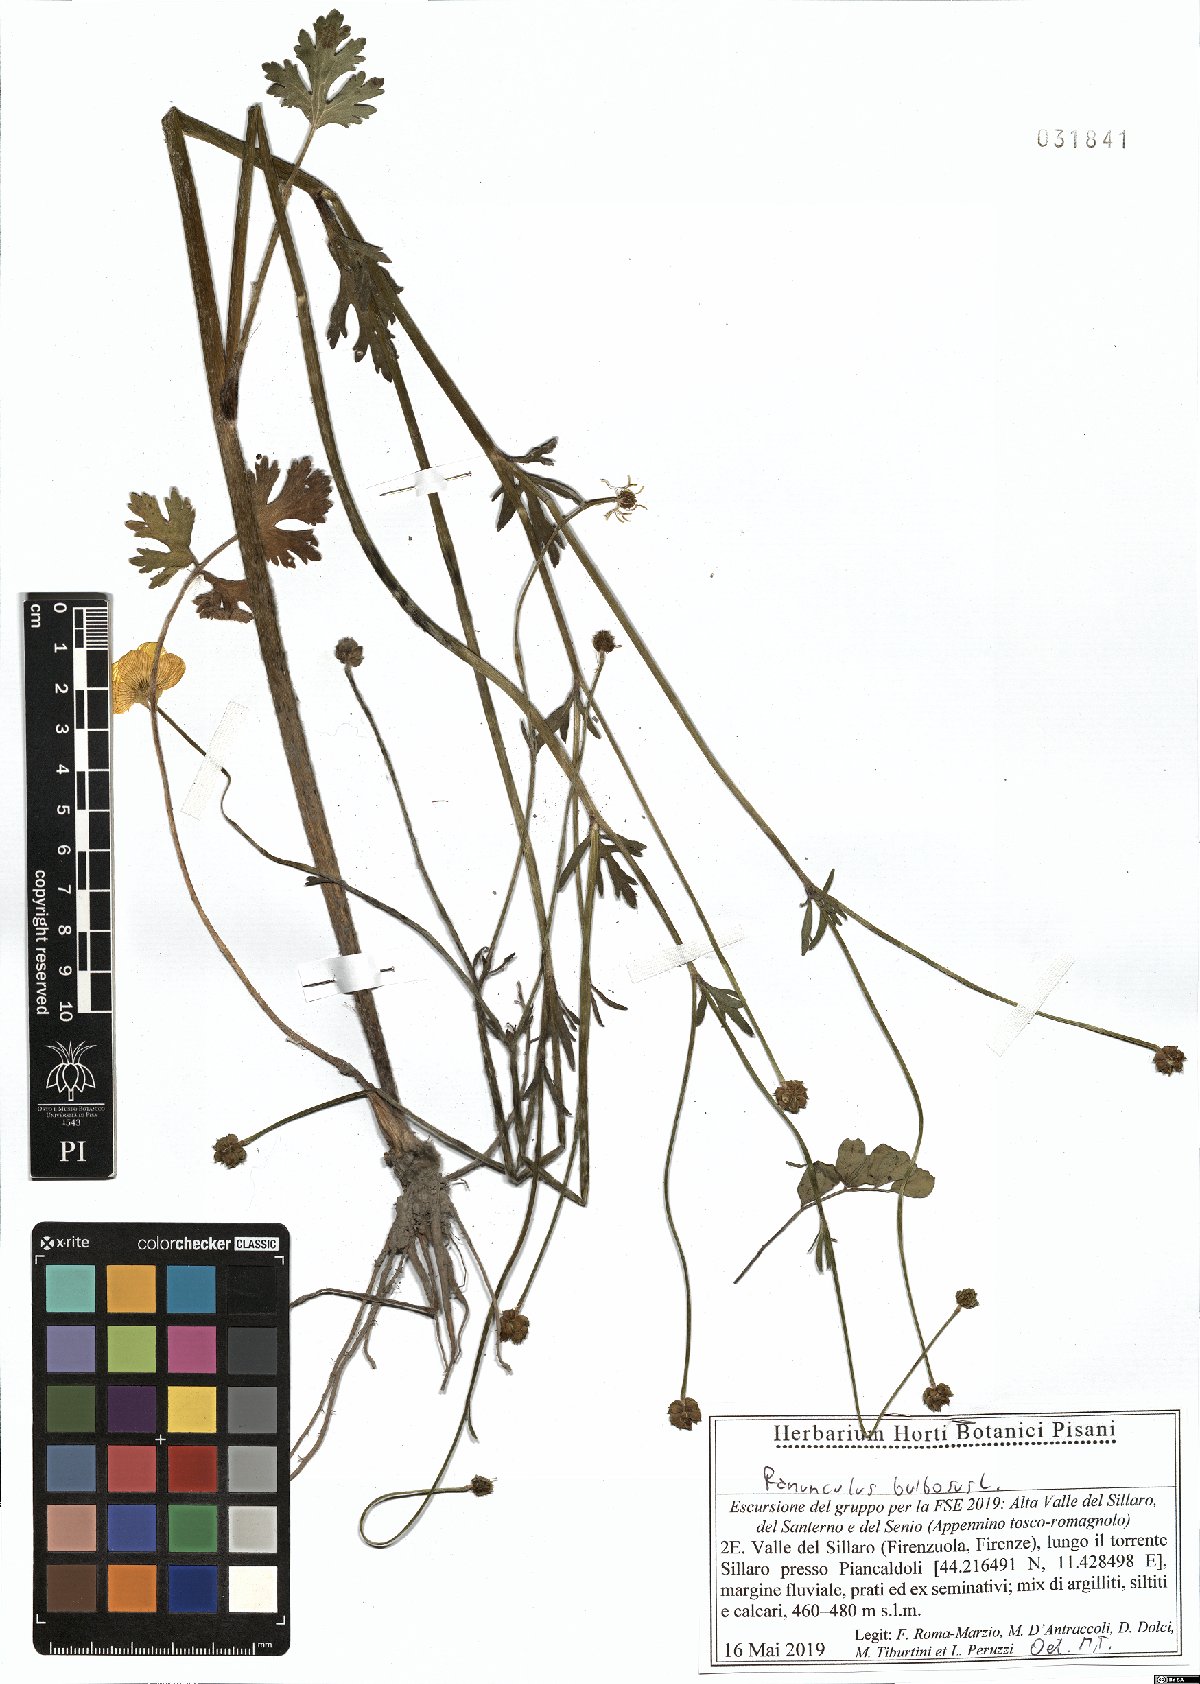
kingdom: Plantae
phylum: Tracheophyta
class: Magnoliopsida
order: Ranunculales
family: Ranunculaceae
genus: Ranunculus
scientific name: Ranunculus bulbosus
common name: Bulbous buttercup
